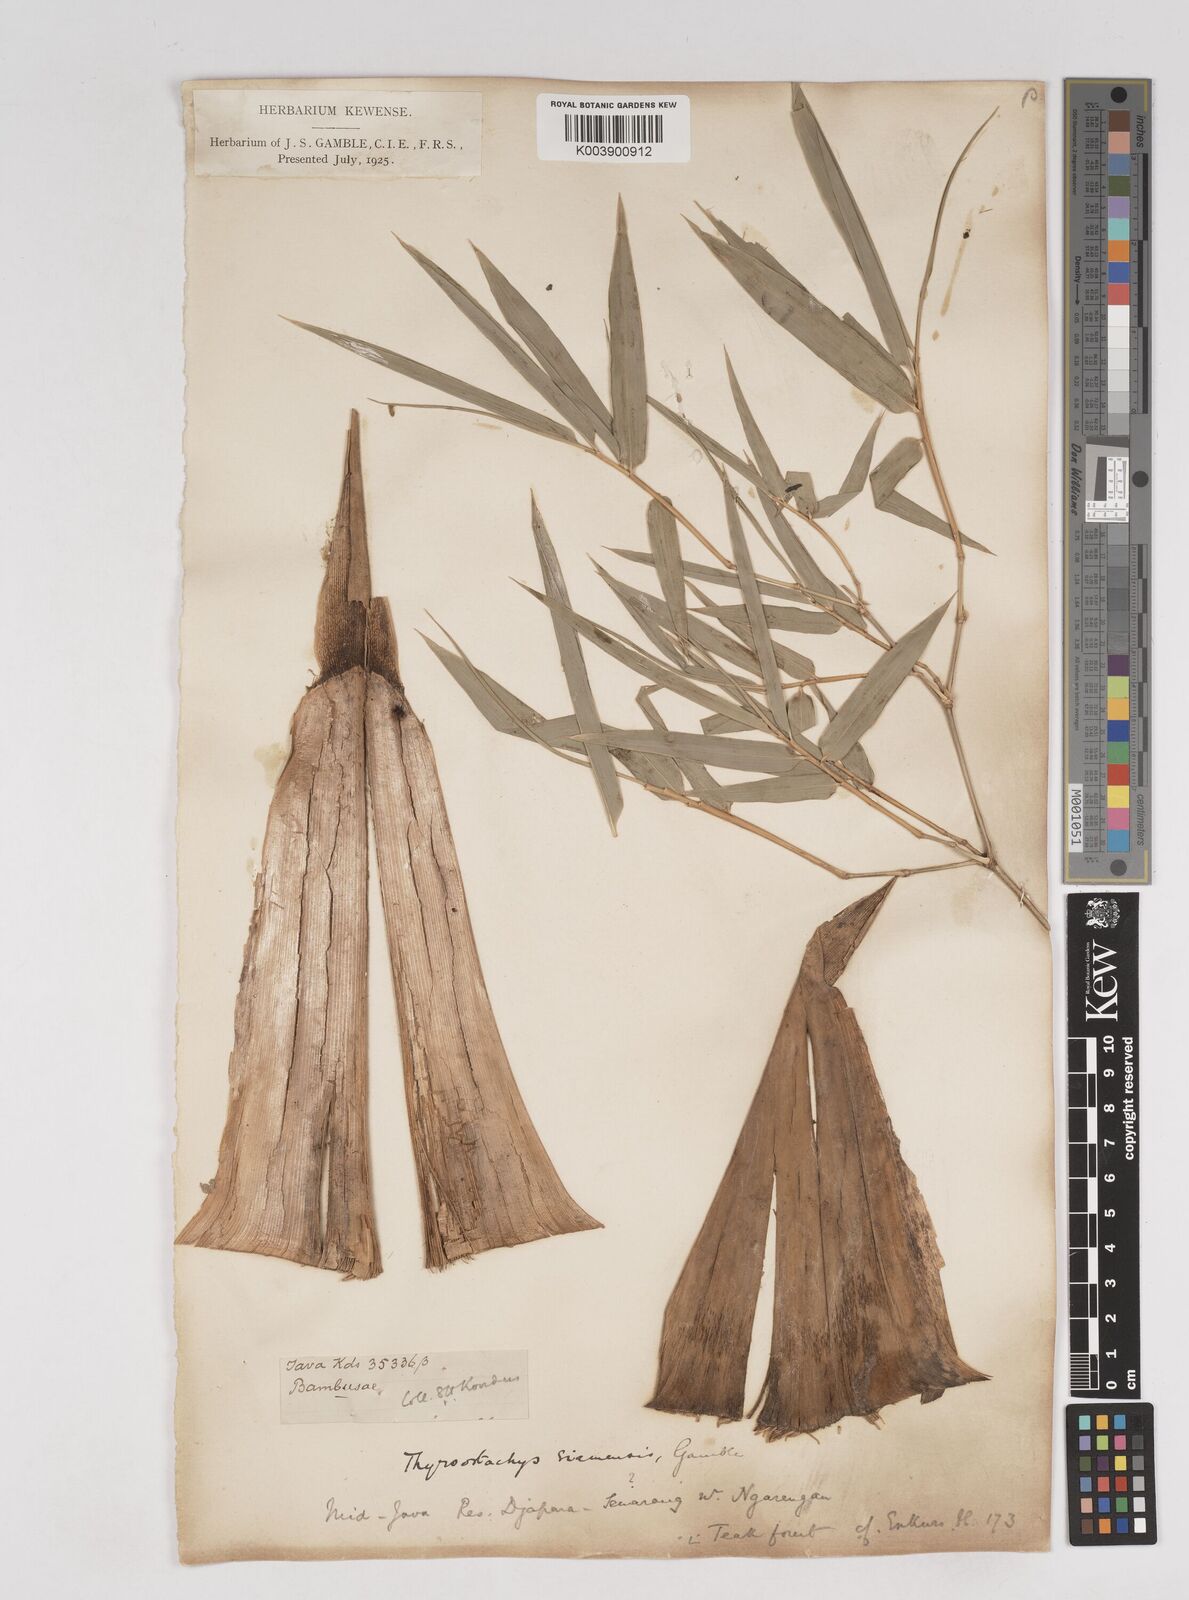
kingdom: Plantae
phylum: Tracheophyta
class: Liliopsida
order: Poales
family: Poaceae
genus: Thyrsostachys
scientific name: Thyrsostachys siamensis
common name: Thailand bamboo
